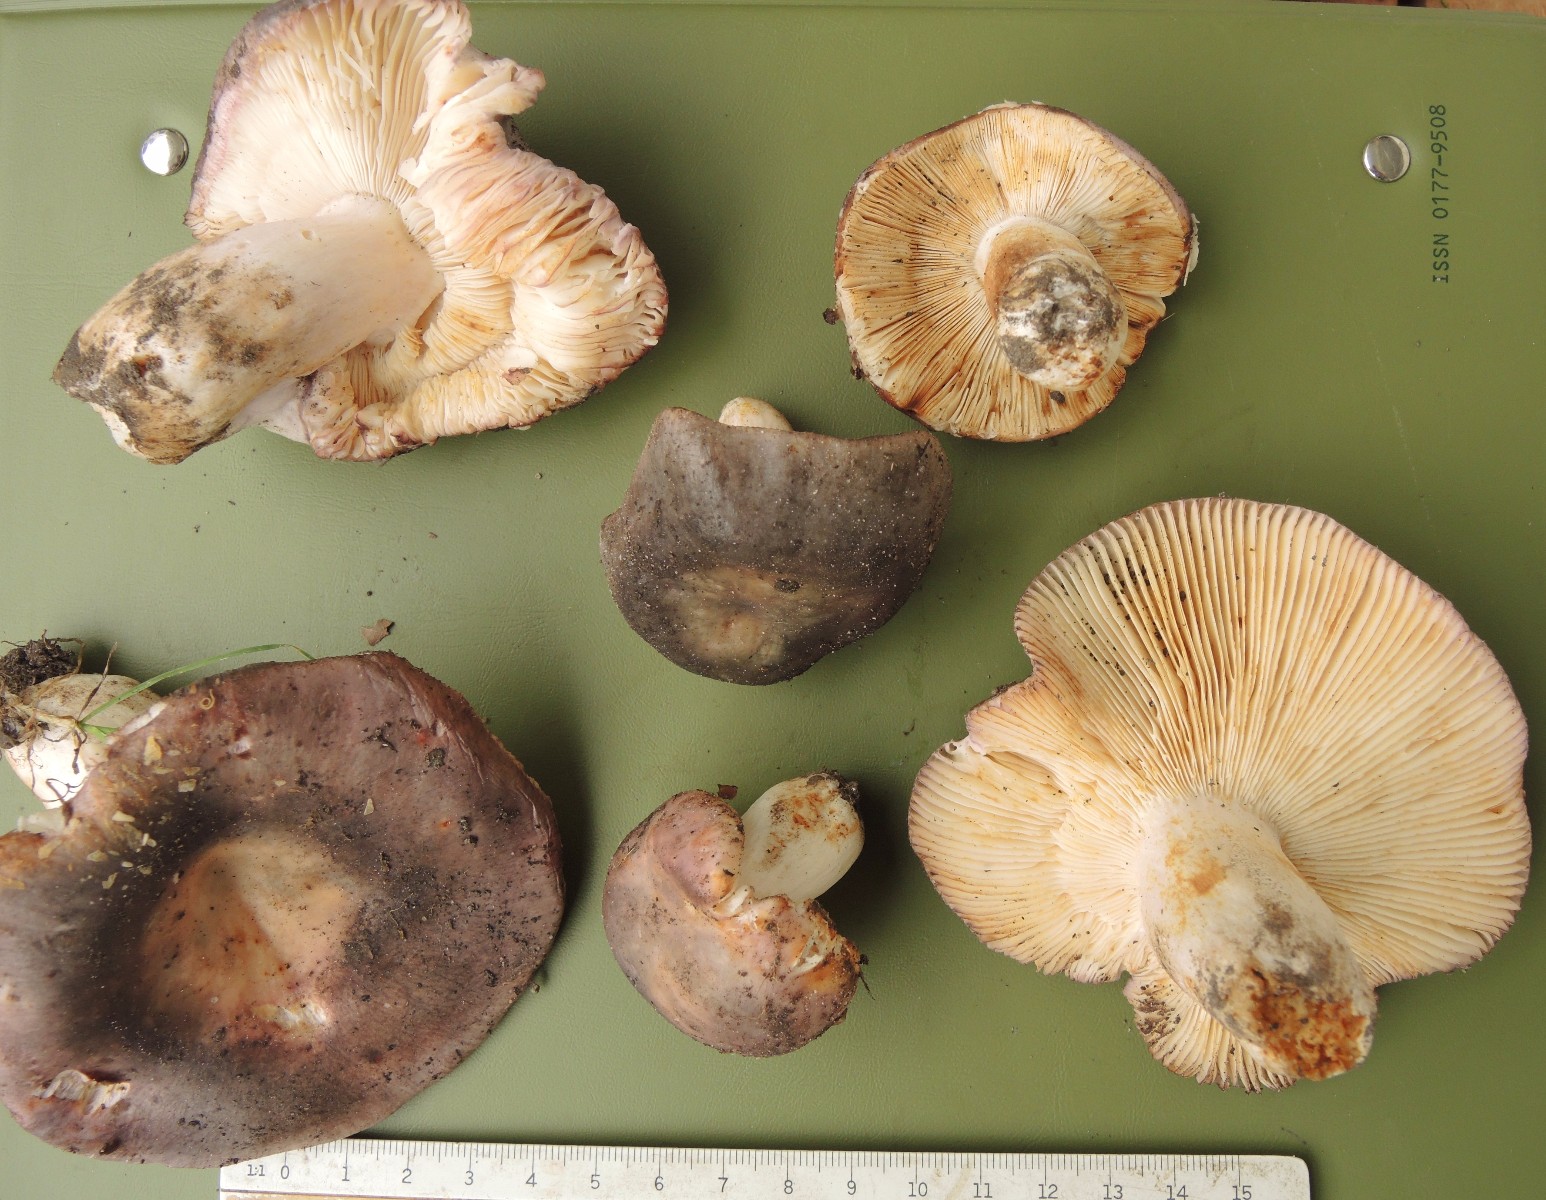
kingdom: Fungi
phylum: Basidiomycota
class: Agaricomycetes
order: Russulales
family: Russulaceae
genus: Russula
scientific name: Russula grisea
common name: grålig skørhat
